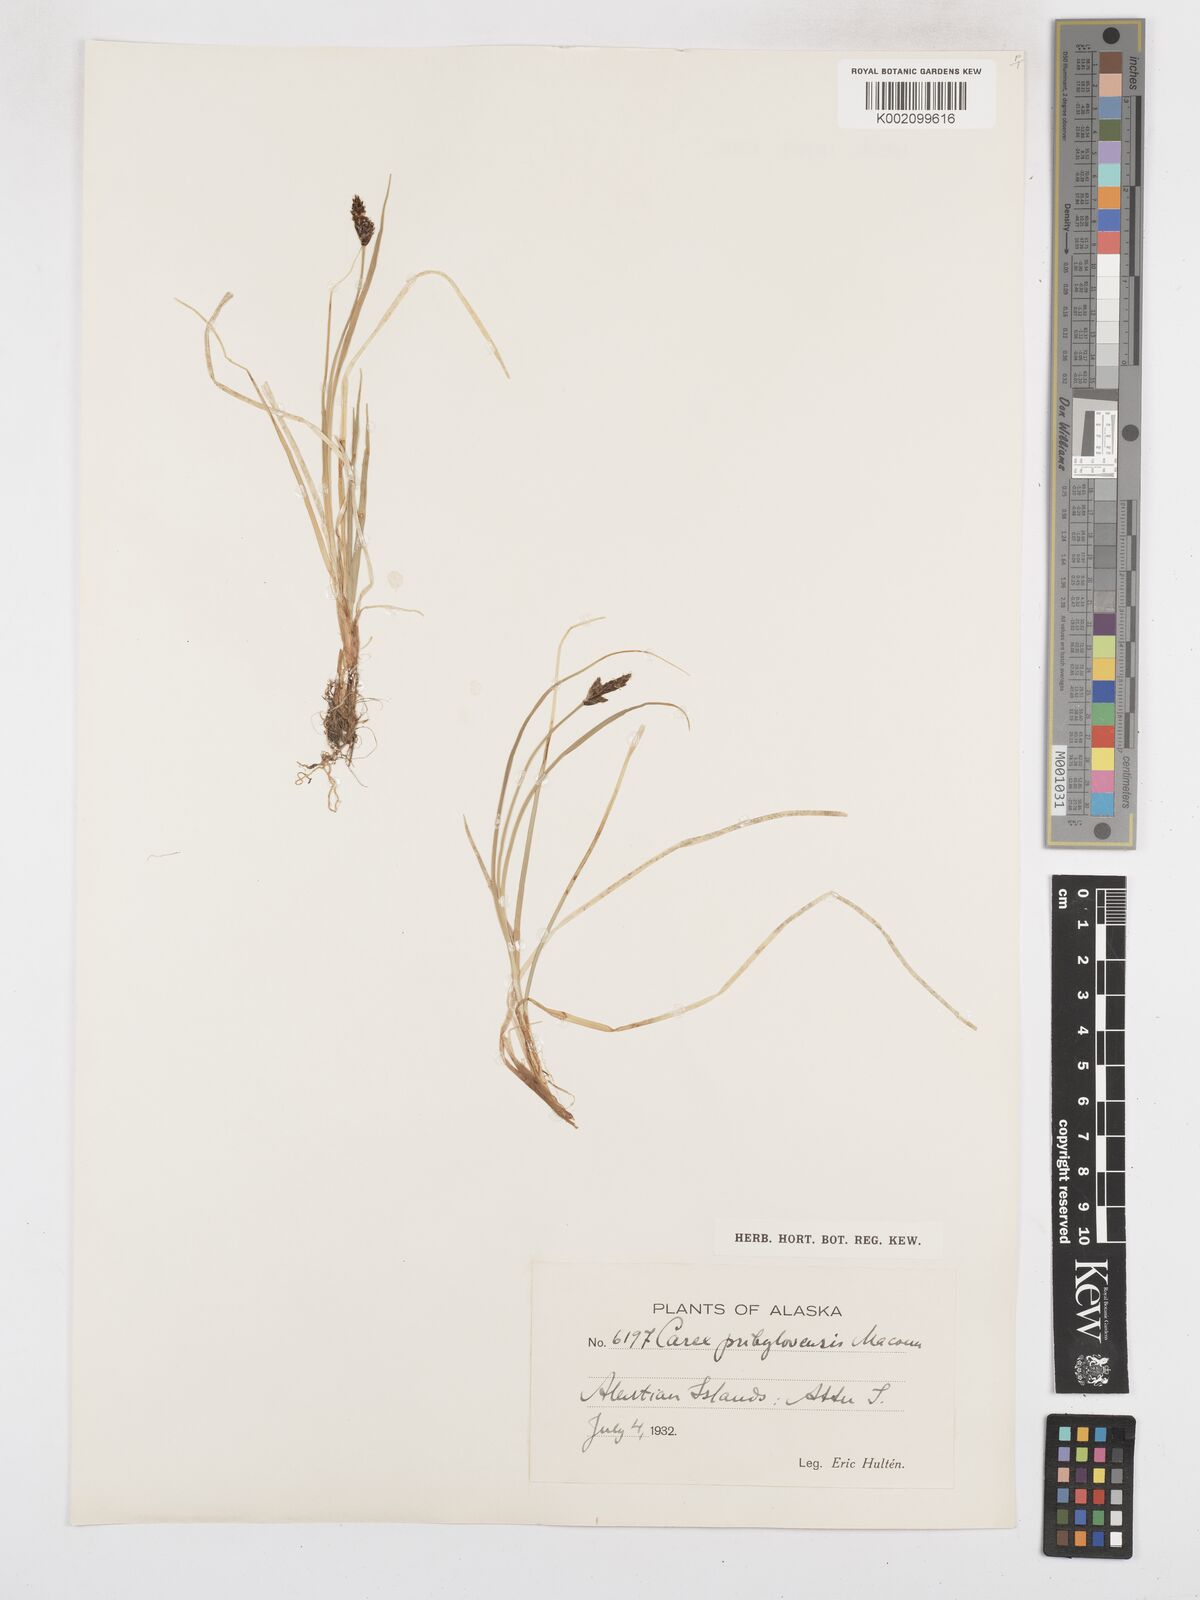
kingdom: Plantae
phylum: Tracheophyta
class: Liliopsida
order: Poales
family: Cyperaceae
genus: Carex
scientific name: Carex glareosa
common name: Clustered sedge
